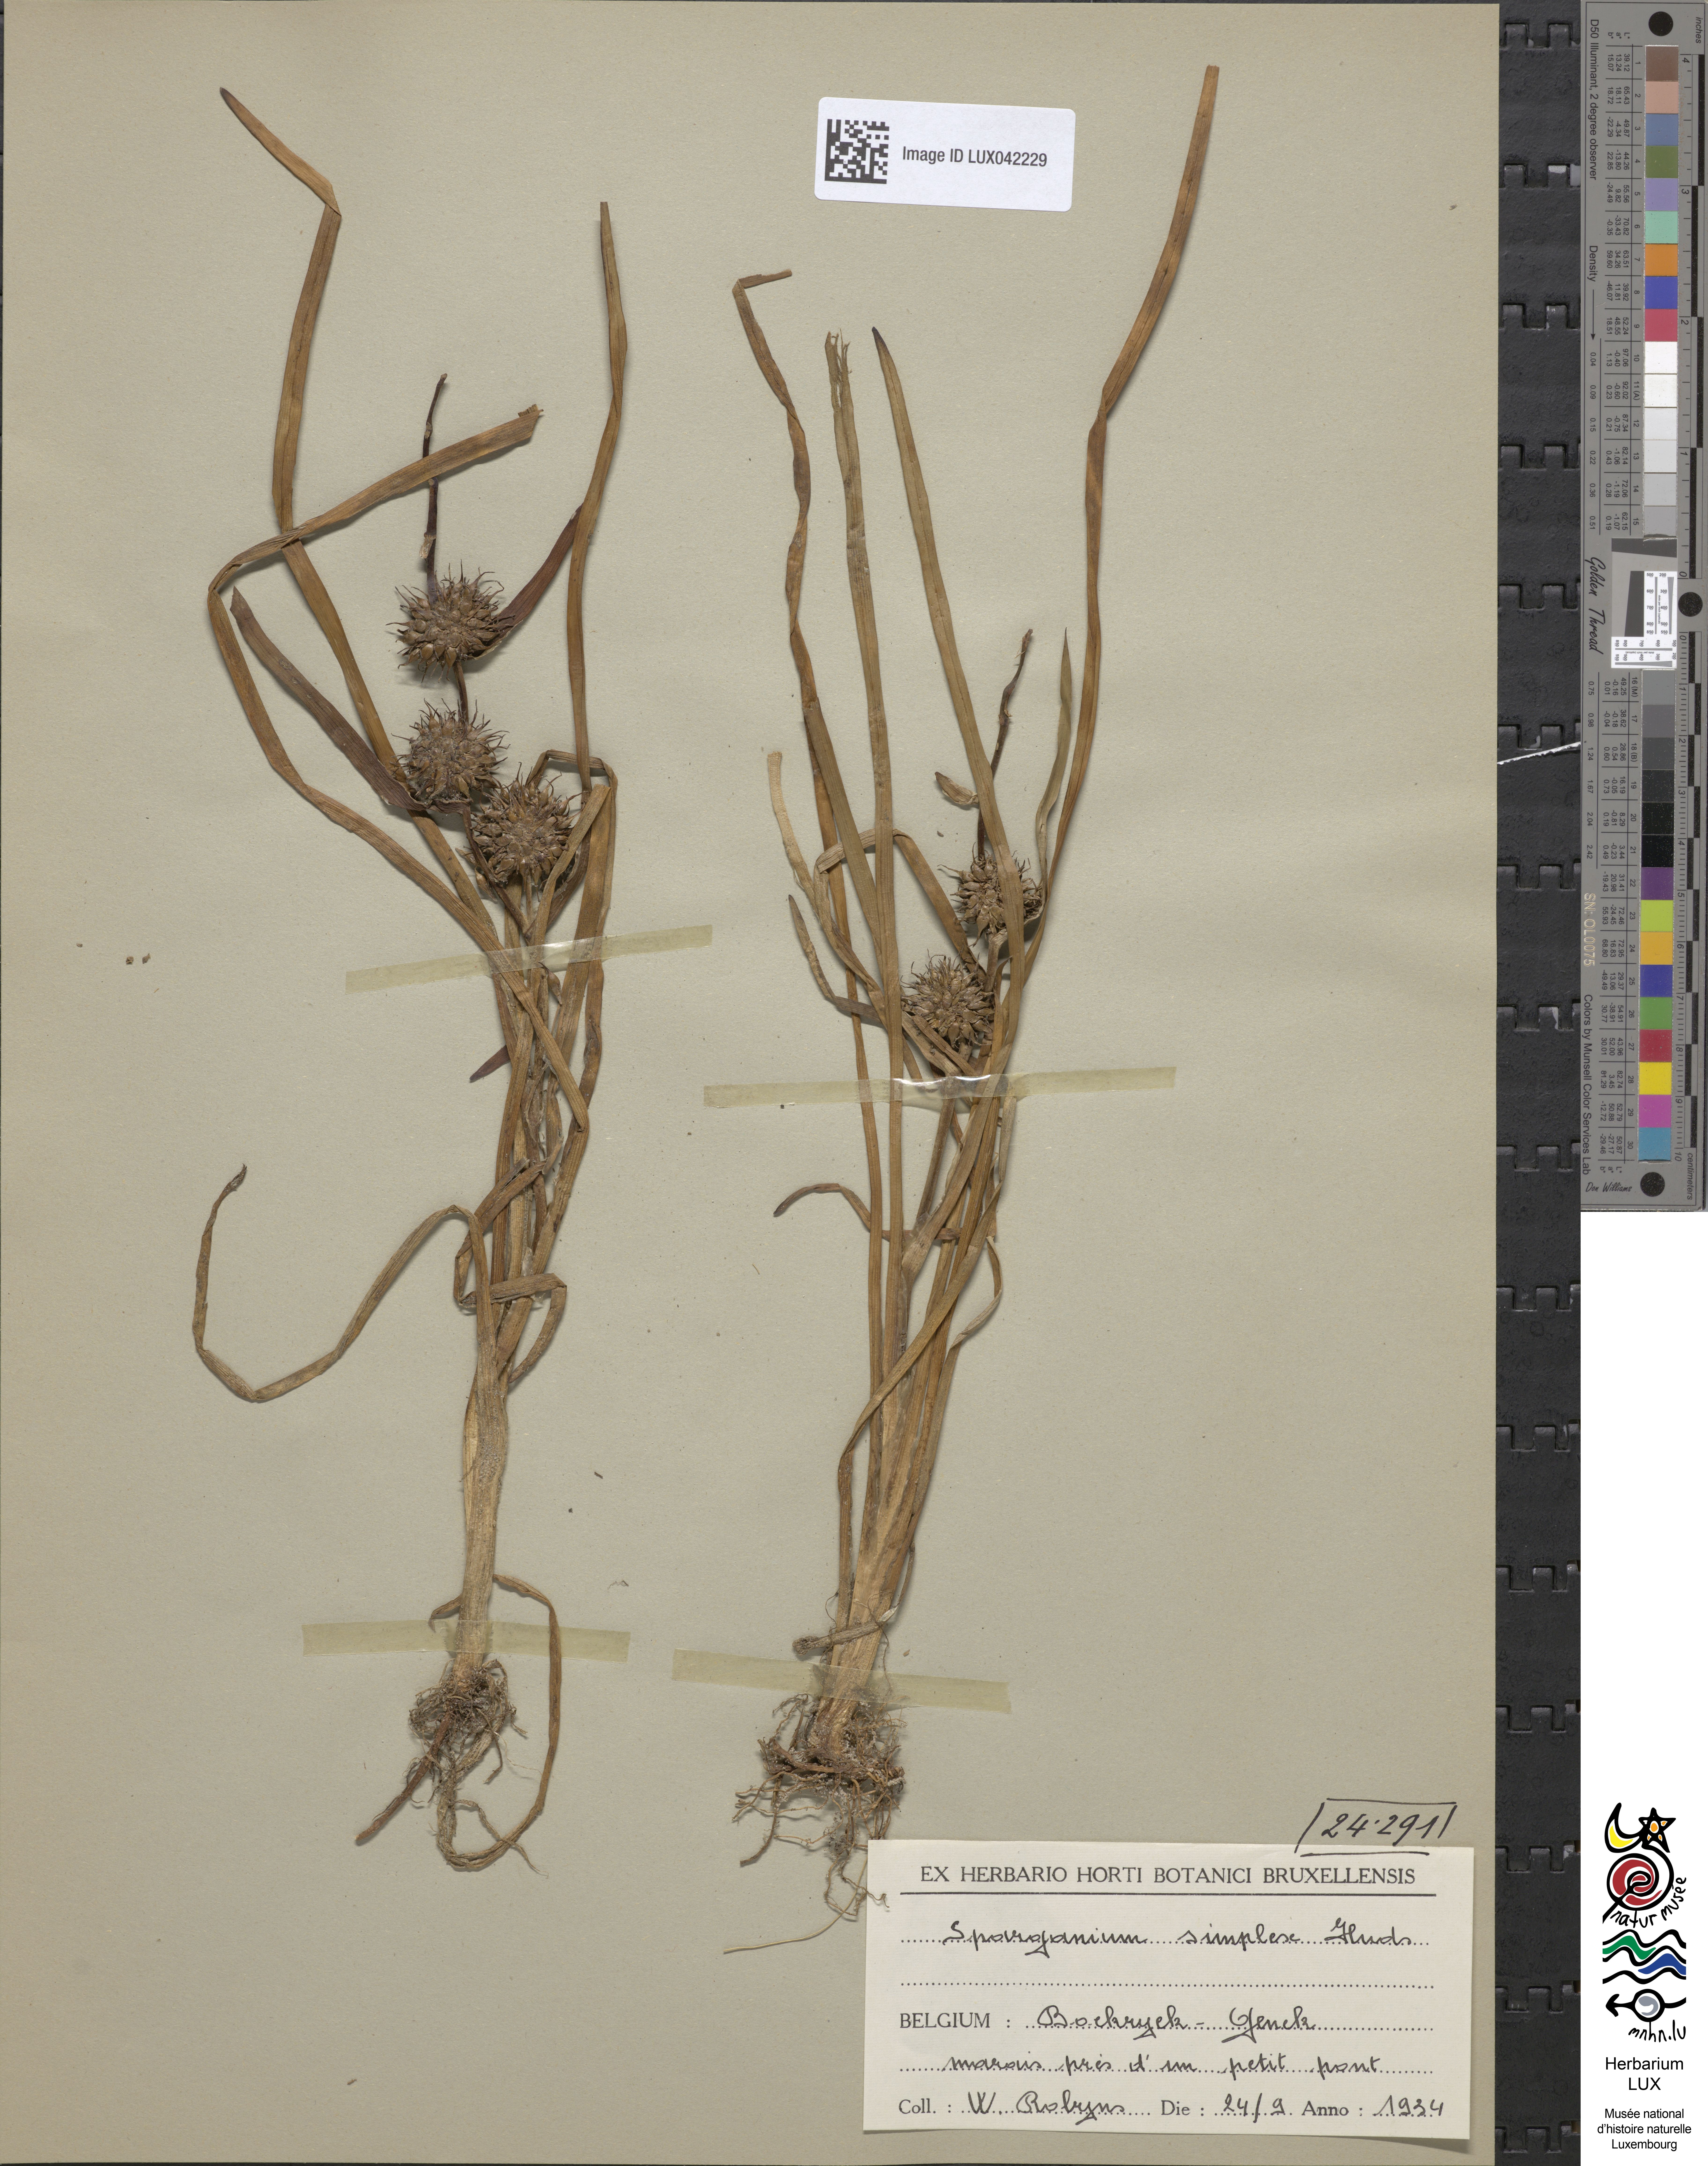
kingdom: Plantae
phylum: Tracheophyta
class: Liliopsida
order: Poales
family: Typhaceae
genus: Sparganium
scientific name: Sparganium emersum
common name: Unbranched bur-reed
